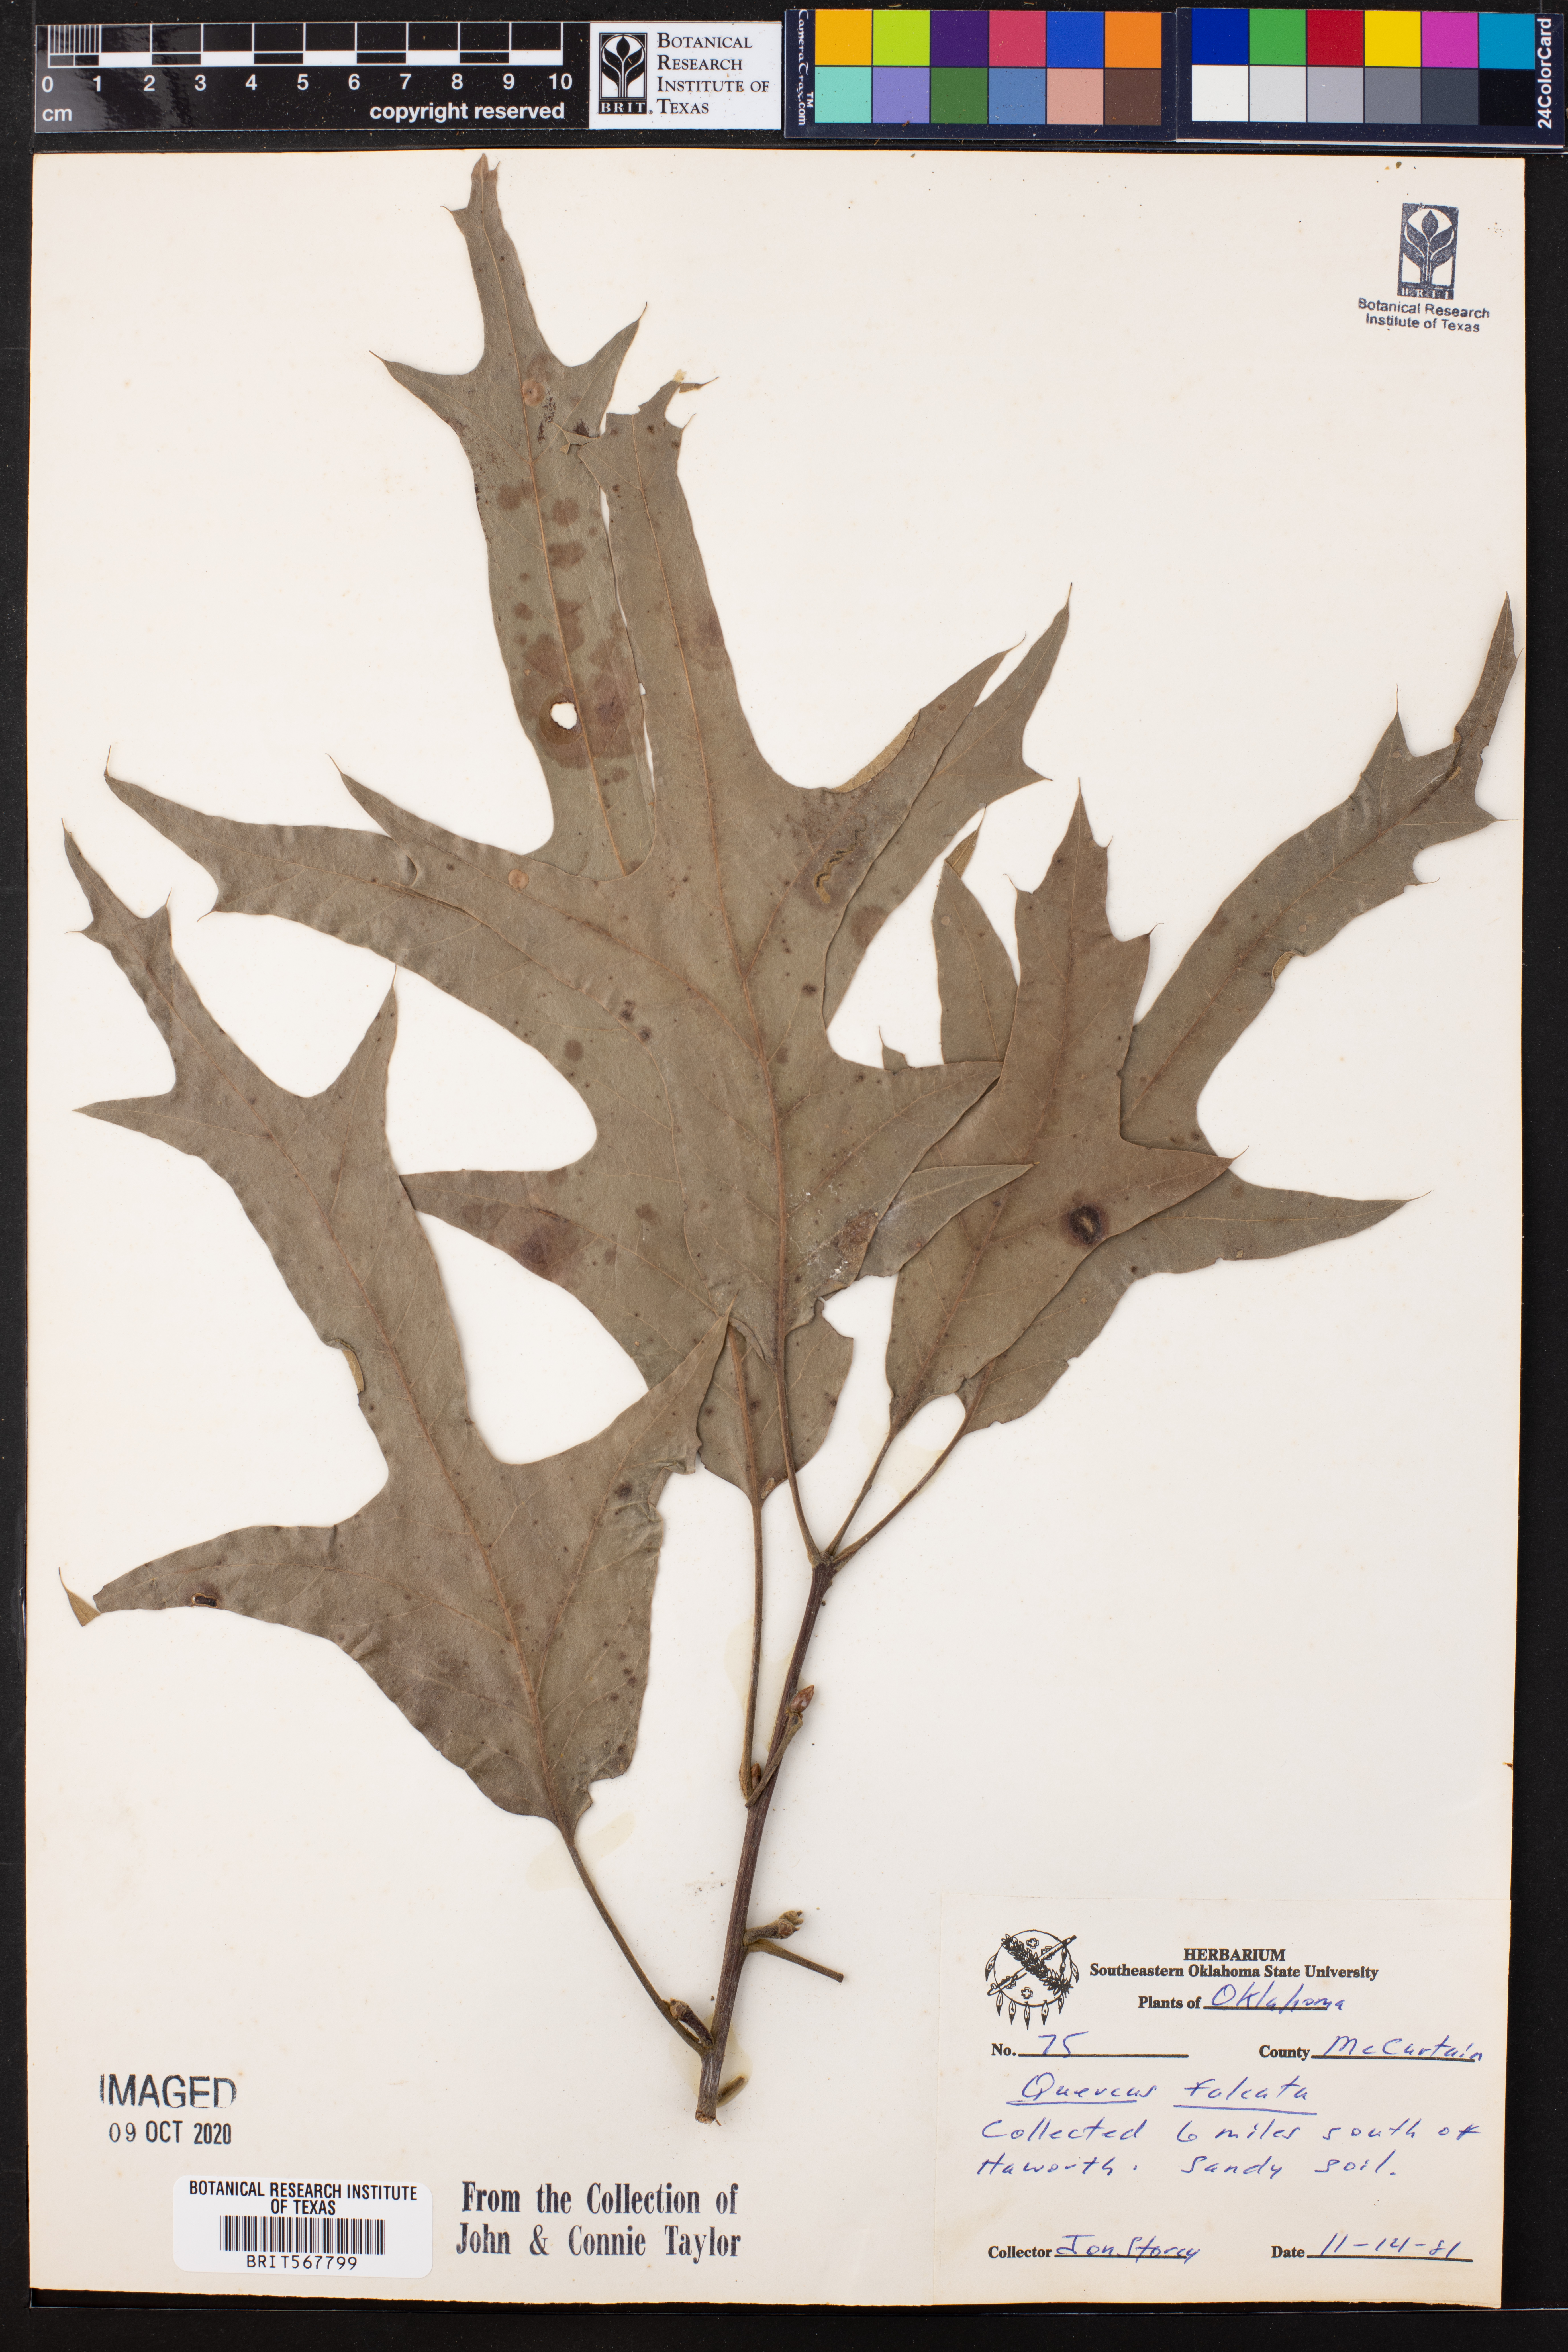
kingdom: Plantae
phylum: Tracheophyta
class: Magnoliopsida
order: Fagales
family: Fagaceae
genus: Quercus
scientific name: Quercus falcata
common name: Southern red oak
